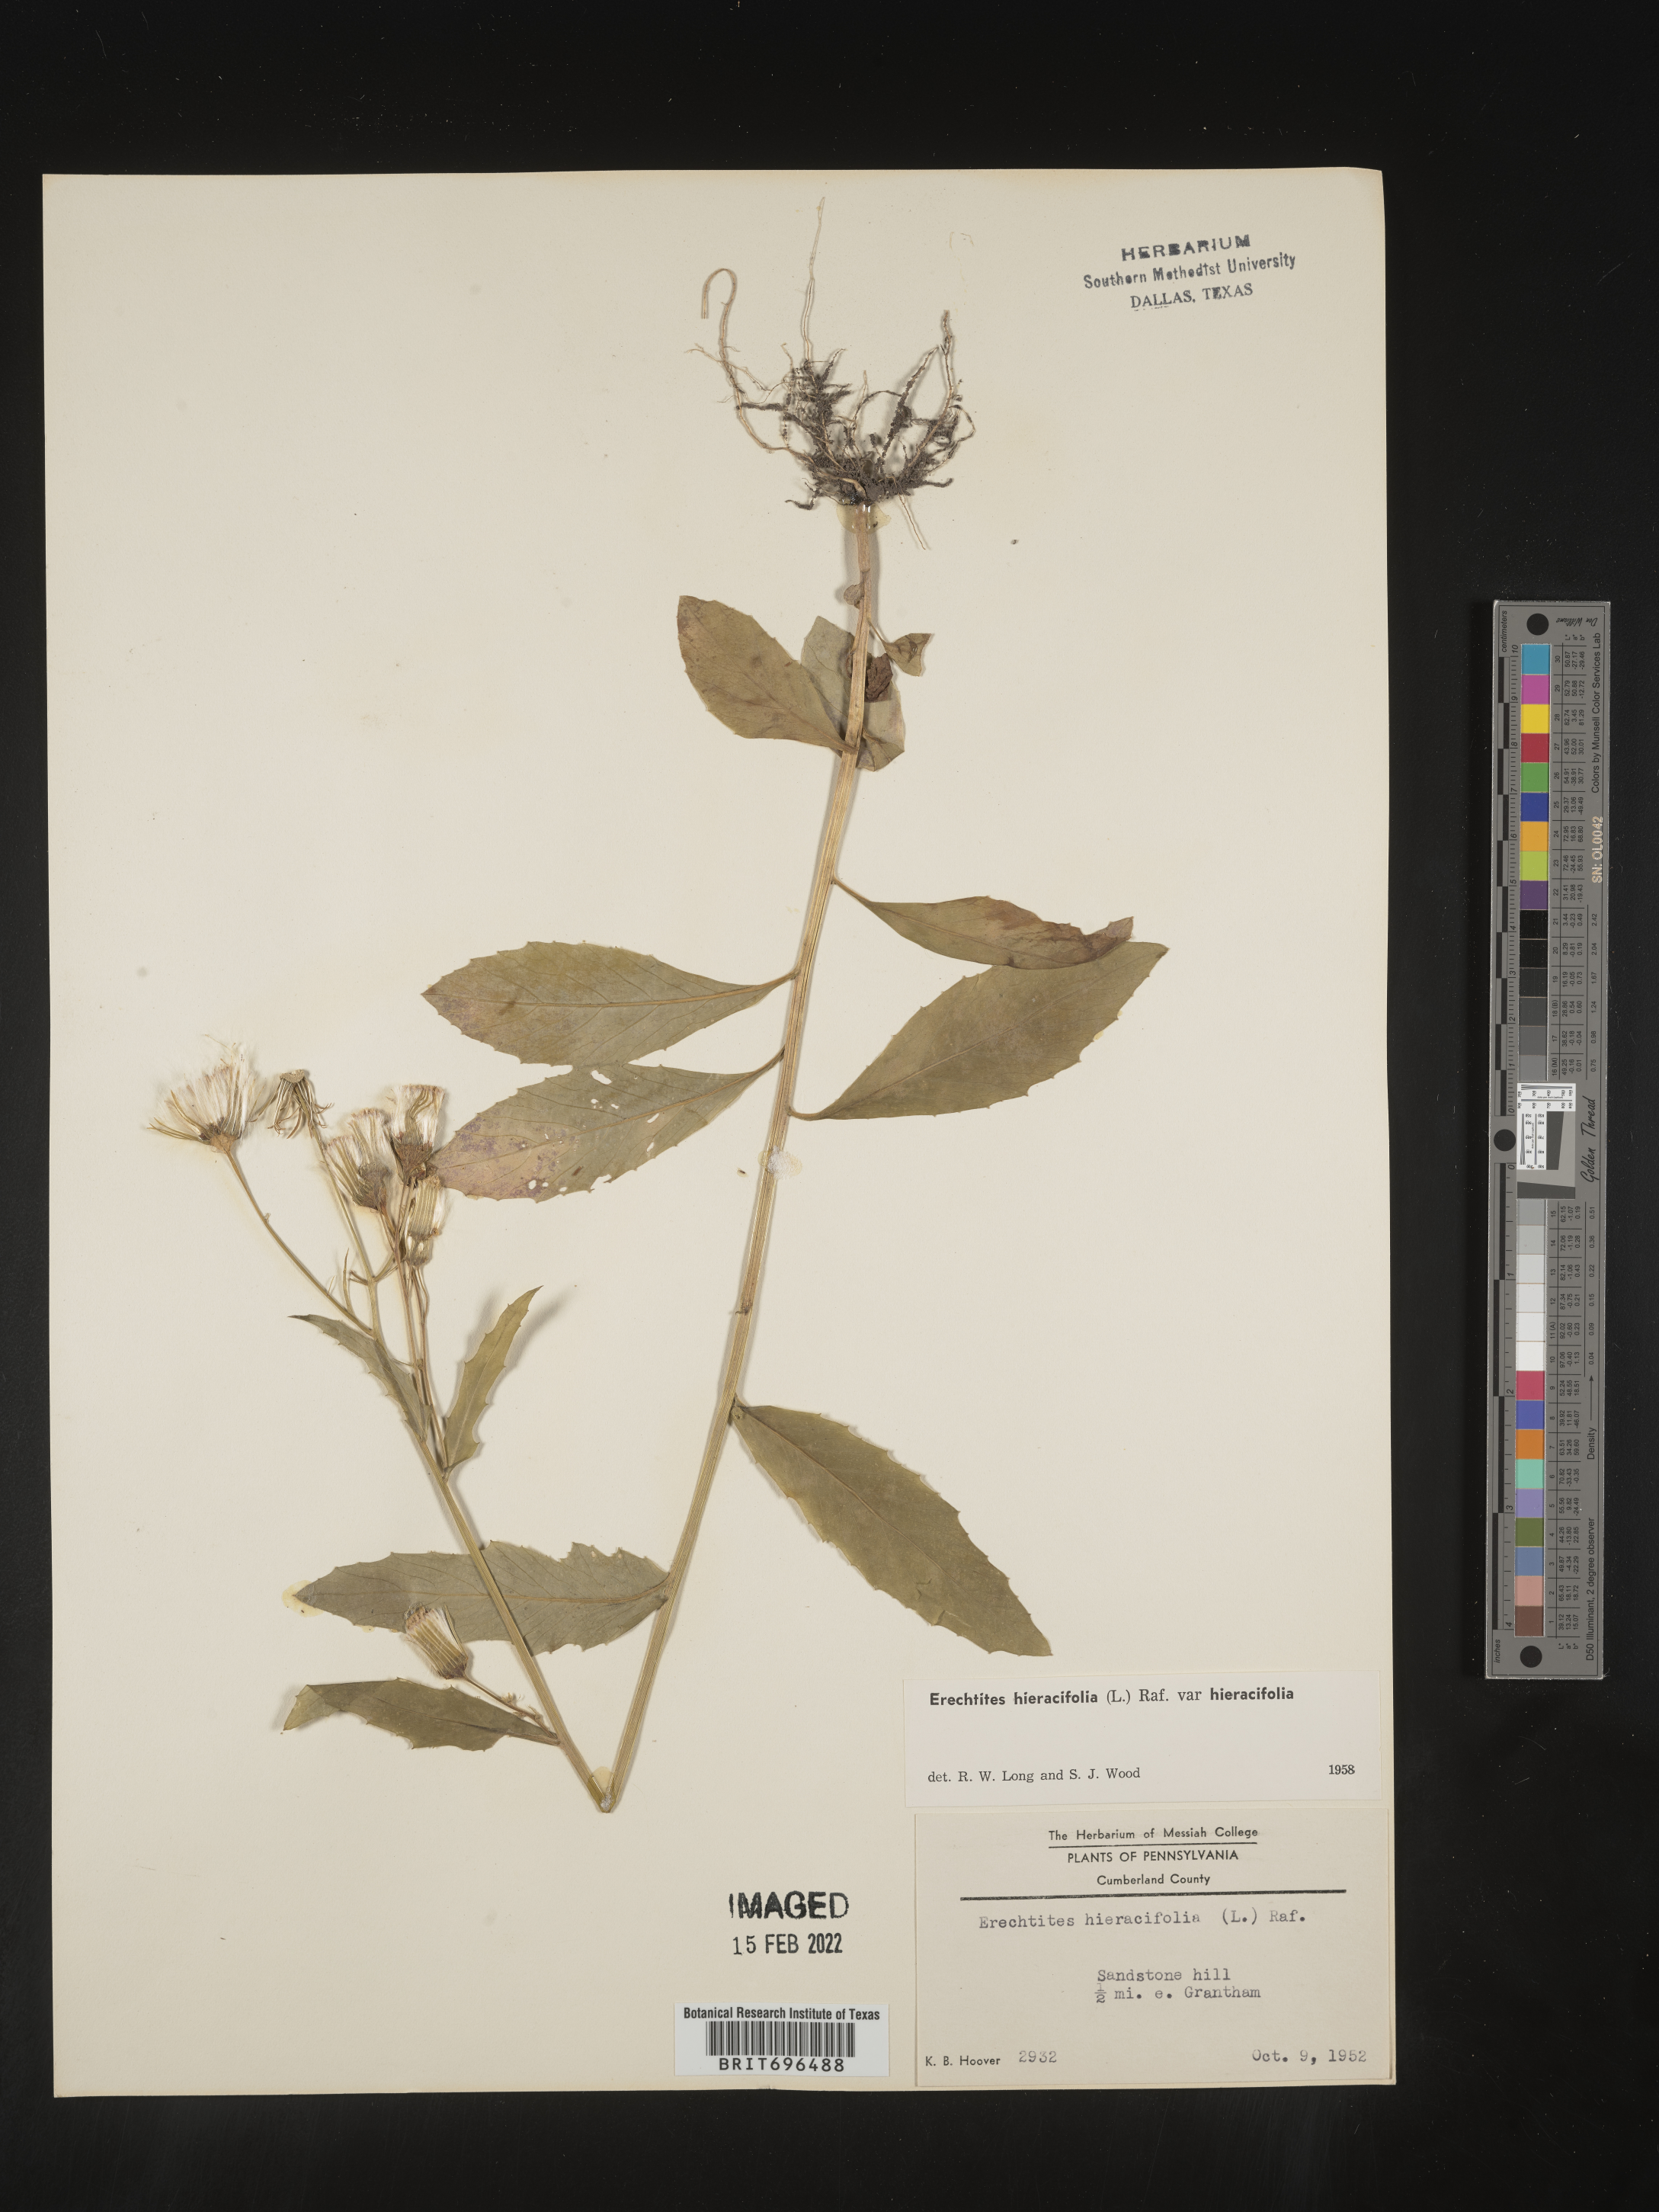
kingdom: Plantae
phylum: Tracheophyta
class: Magnoliopsida
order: Asterales
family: Asteraceae
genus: Erechtites
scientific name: Erechtites hieraciifolius
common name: American burnweed
